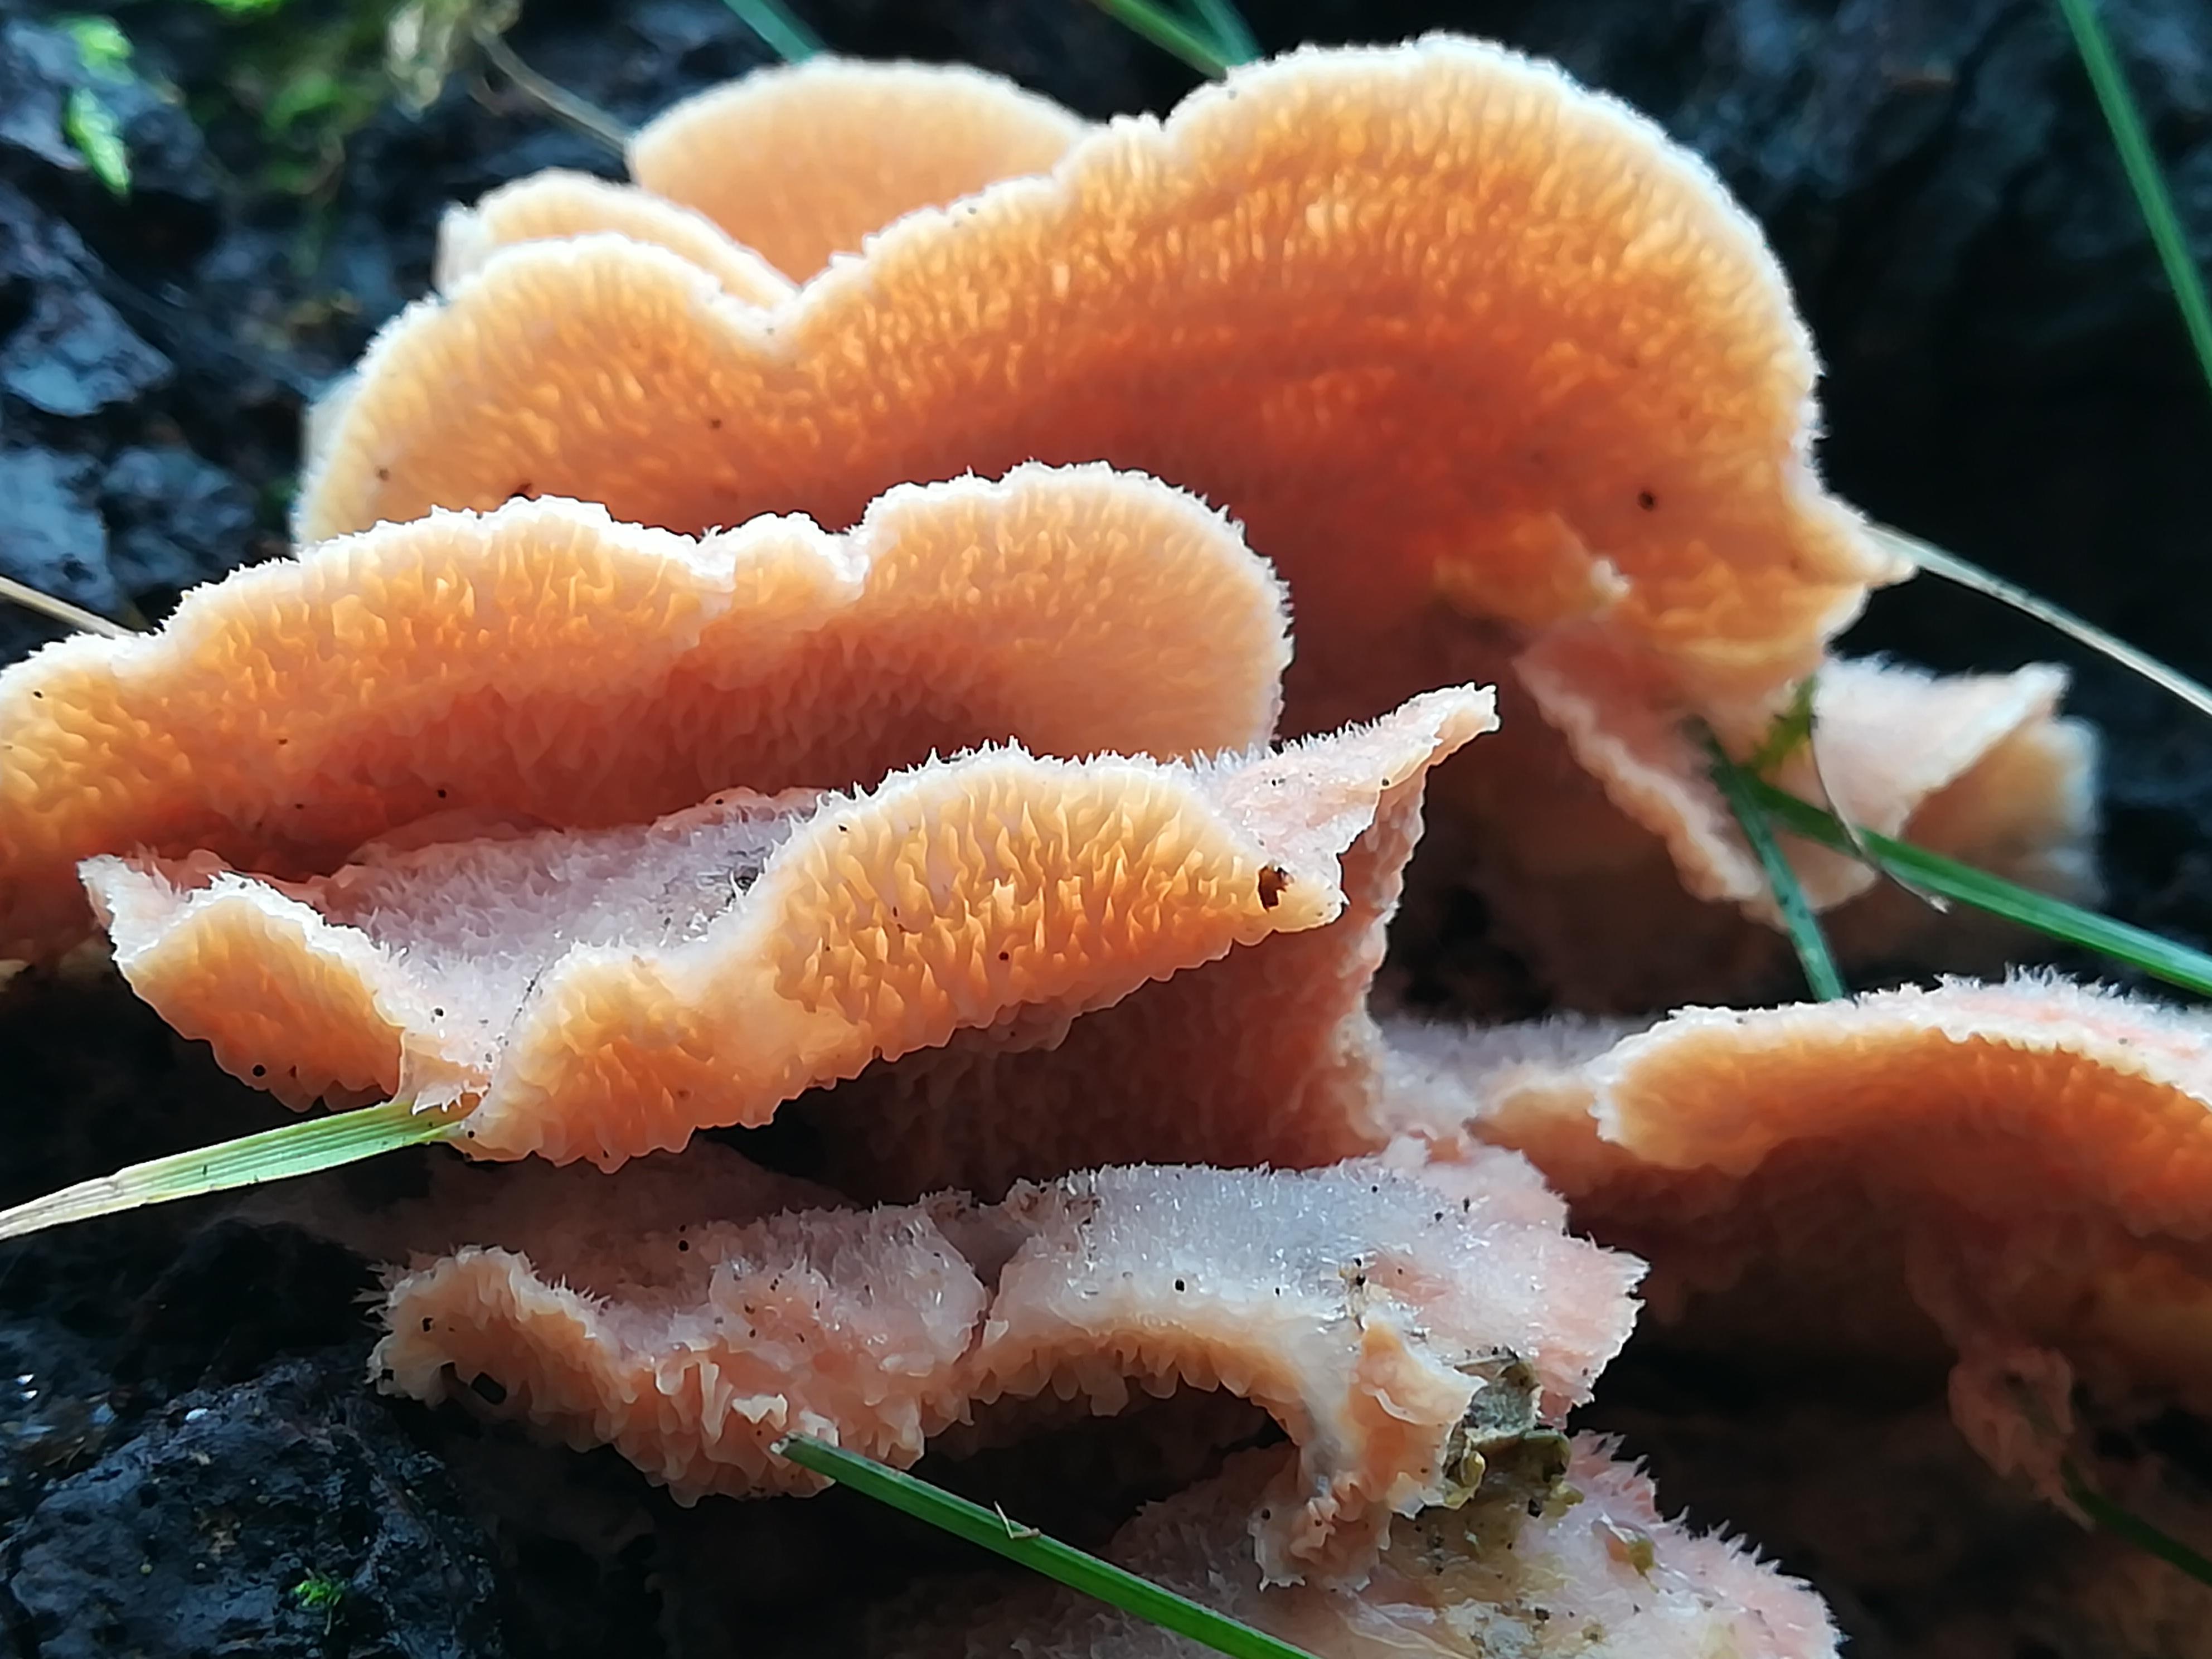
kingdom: Fungi
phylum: Basidiomycota
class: Agaricomycetes
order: Polyporales
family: Meruliaceae
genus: Phlebia
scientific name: Phlebia tremellosa
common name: bævrende åresvamp
